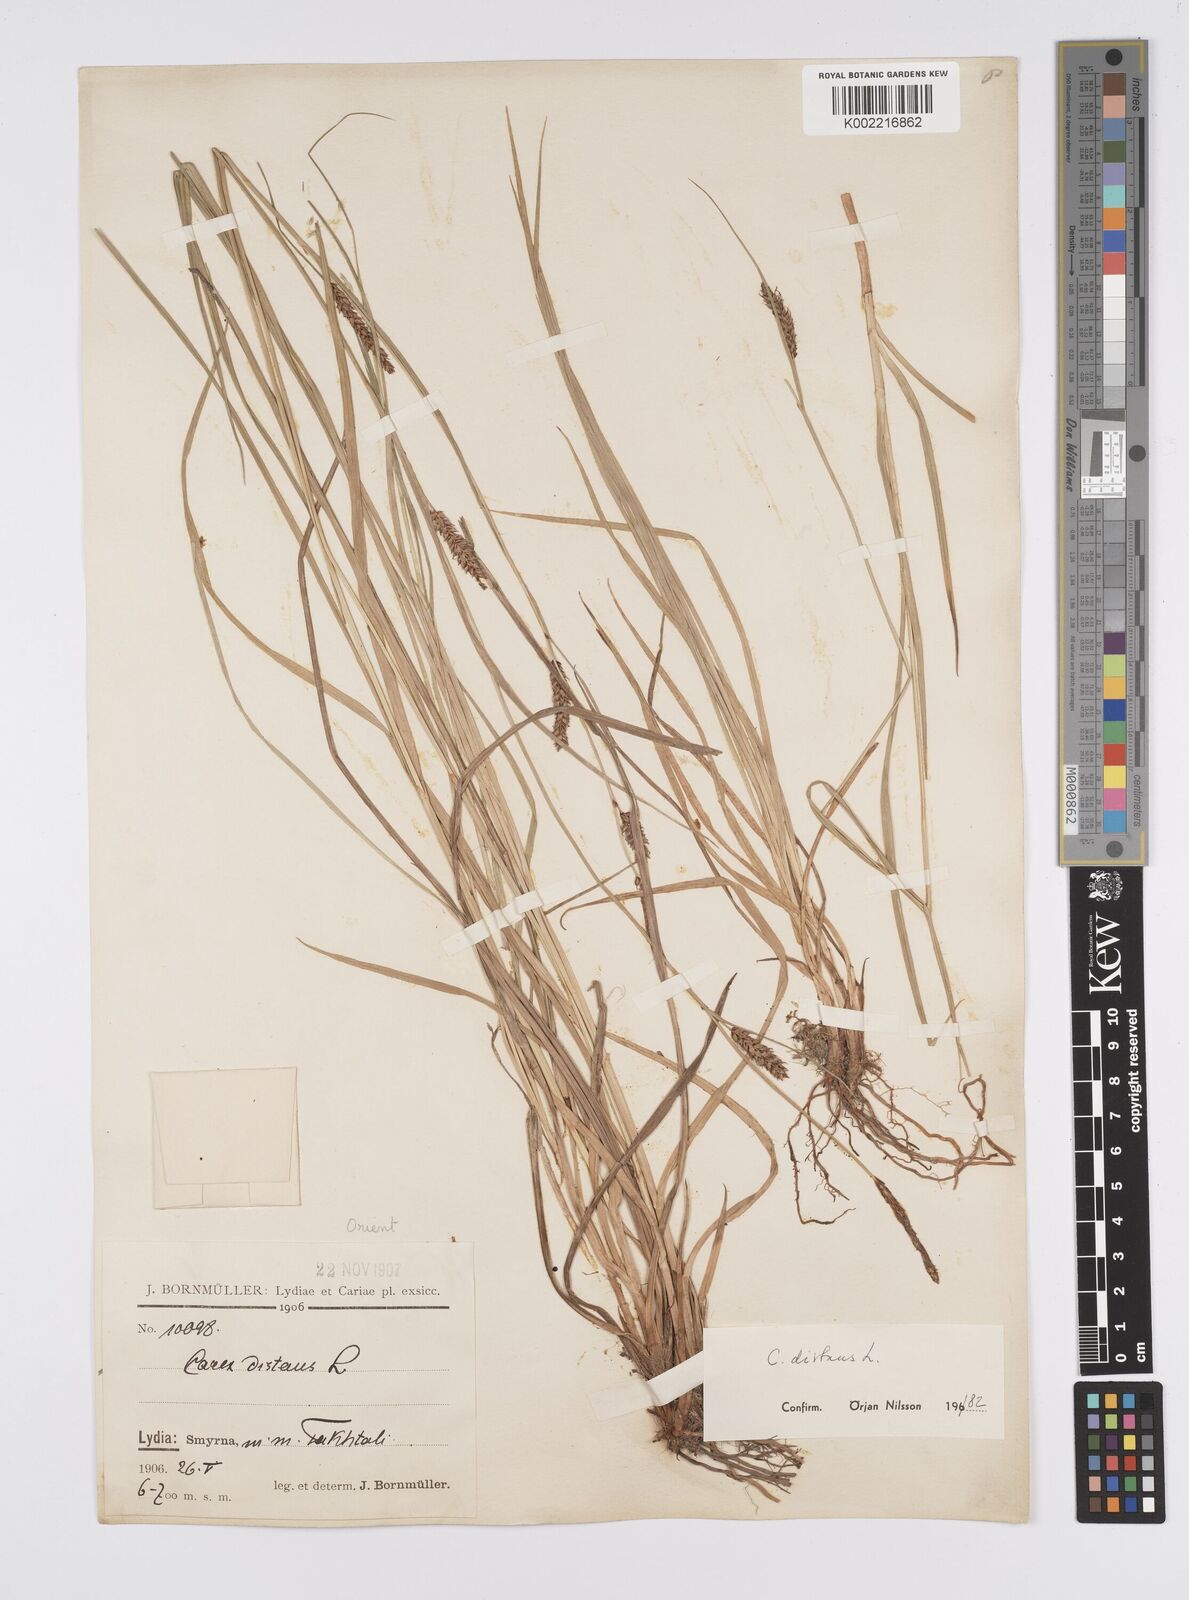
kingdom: Plantae
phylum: Tracheophyta
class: Liliopsida
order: Poales
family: Cyperaceae
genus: Carex
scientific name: Carex distans
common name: Distant sedge
